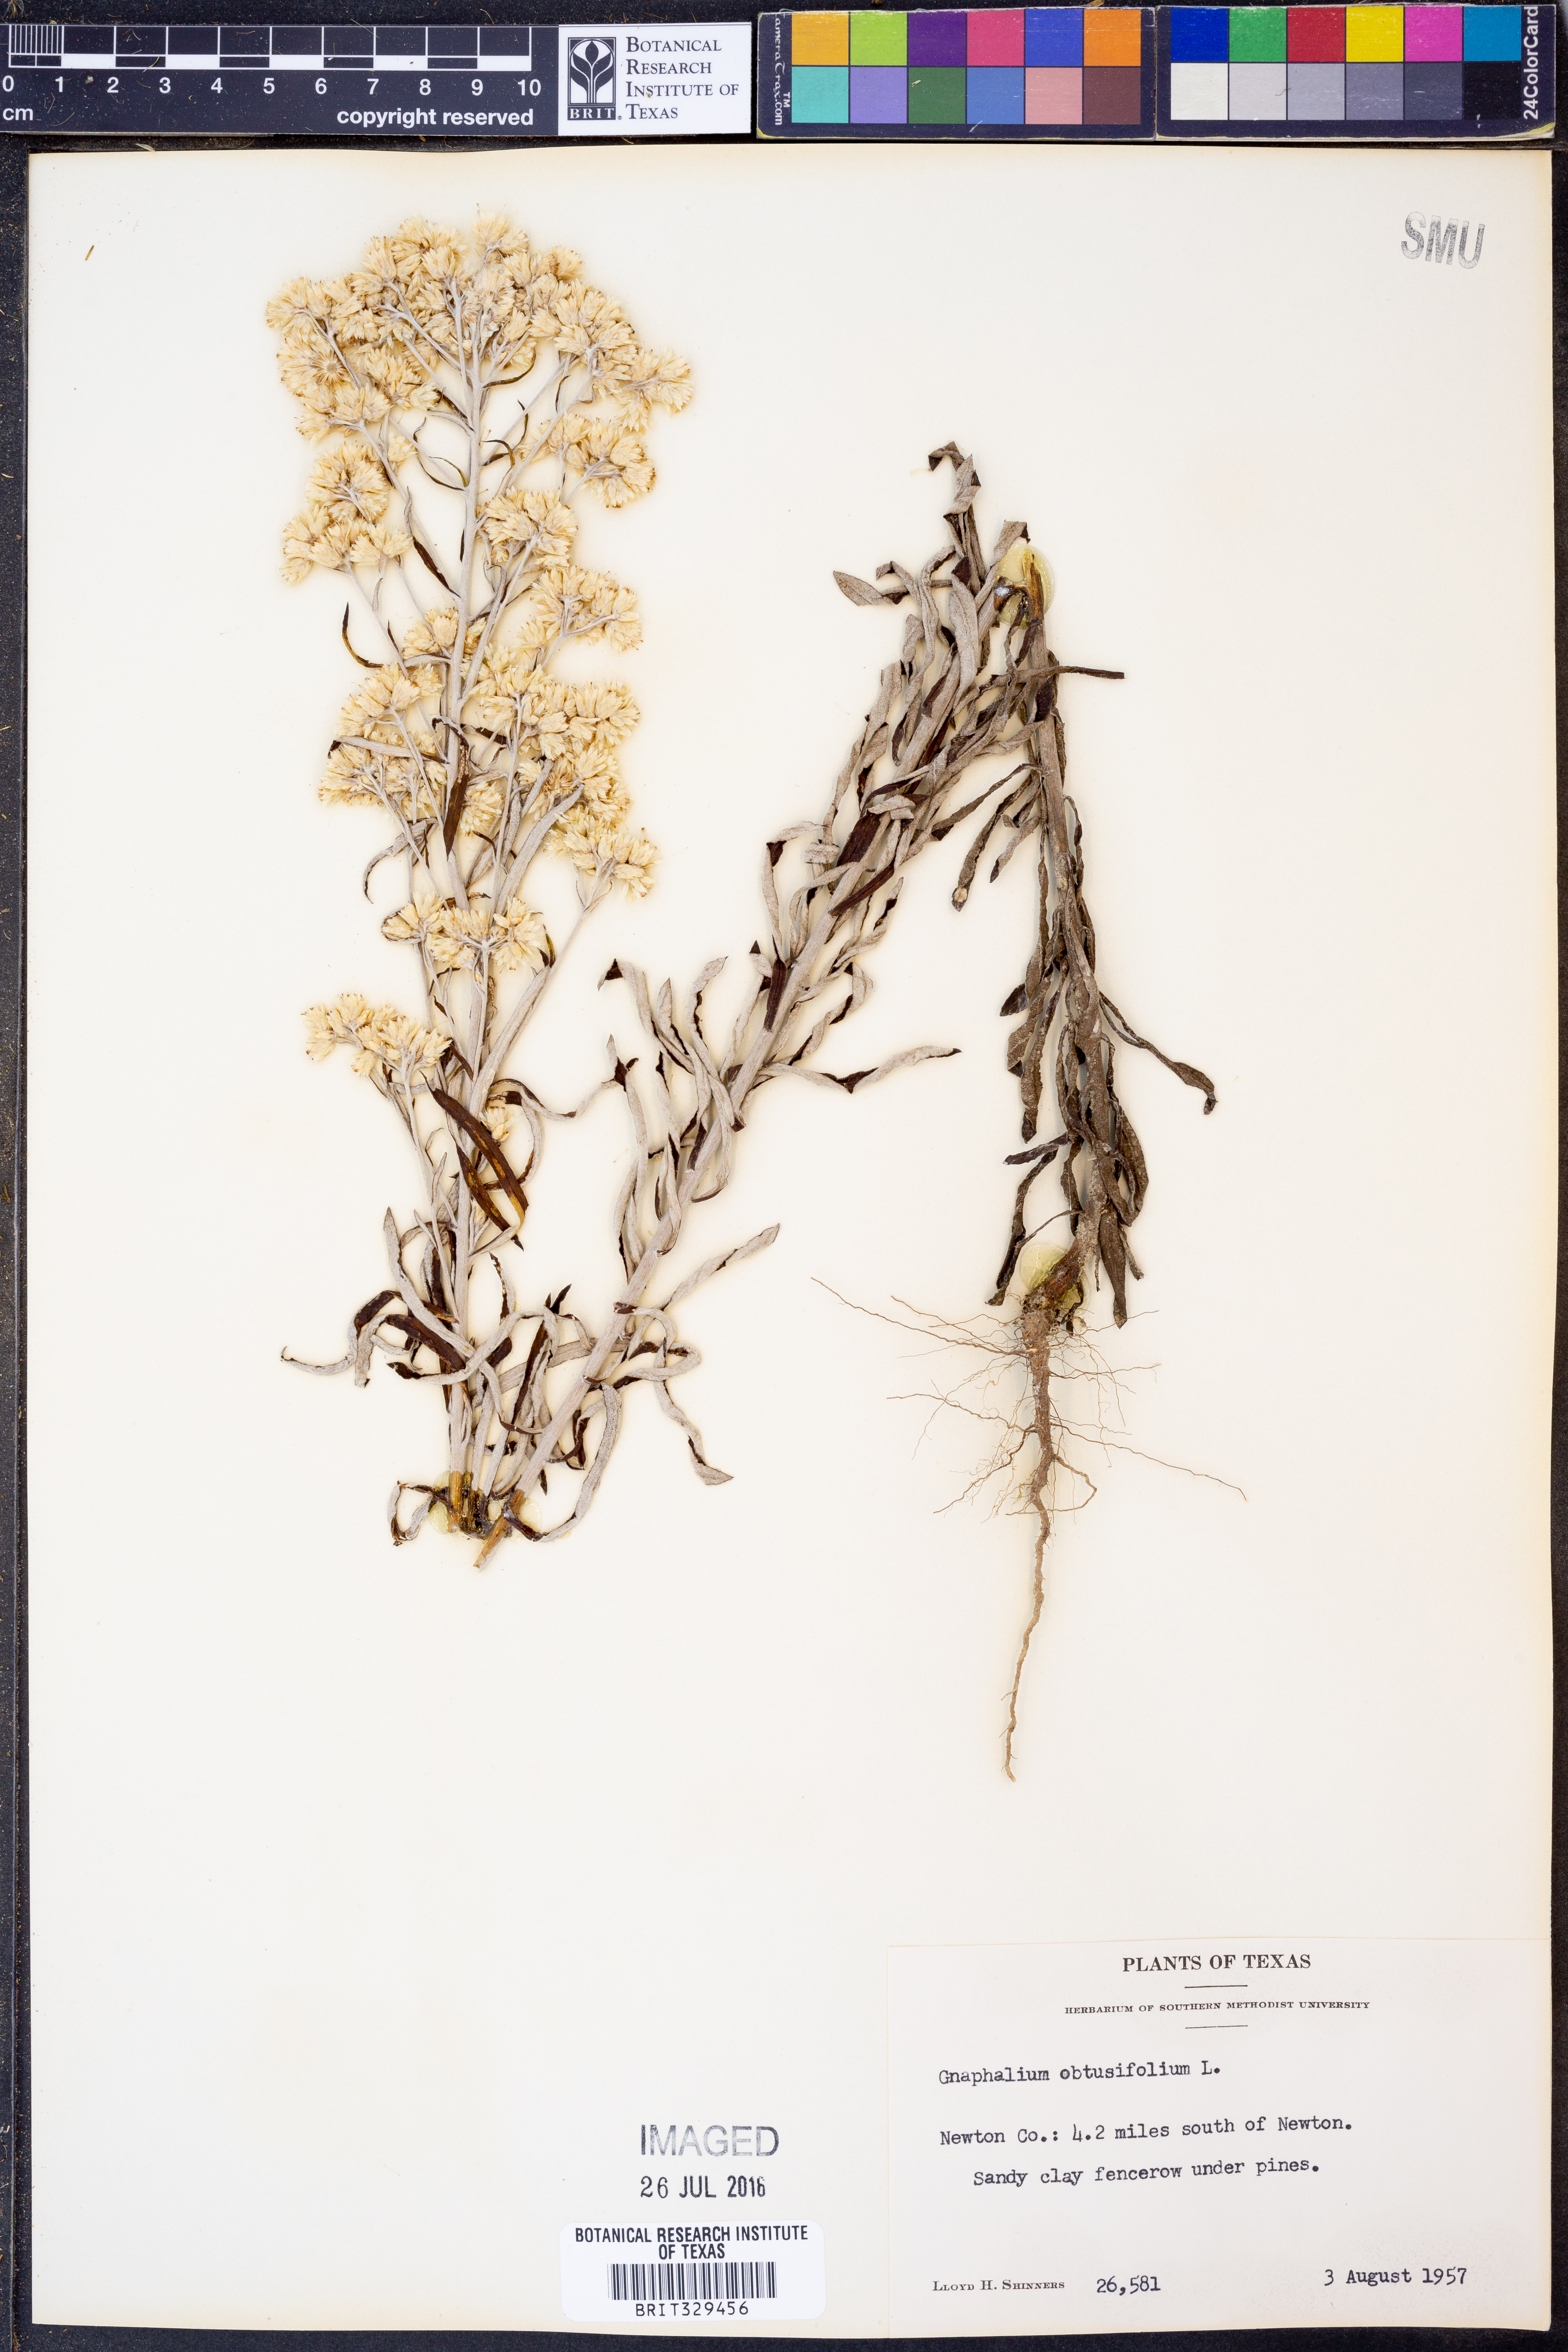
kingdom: Plantae
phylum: Tracheophyta
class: Magnoliopsida
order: Asterales
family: Asteraceae
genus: Pseudognaphalium
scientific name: Pseudognaphalium obtusifolium
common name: Eastern rabbit-tobacco
